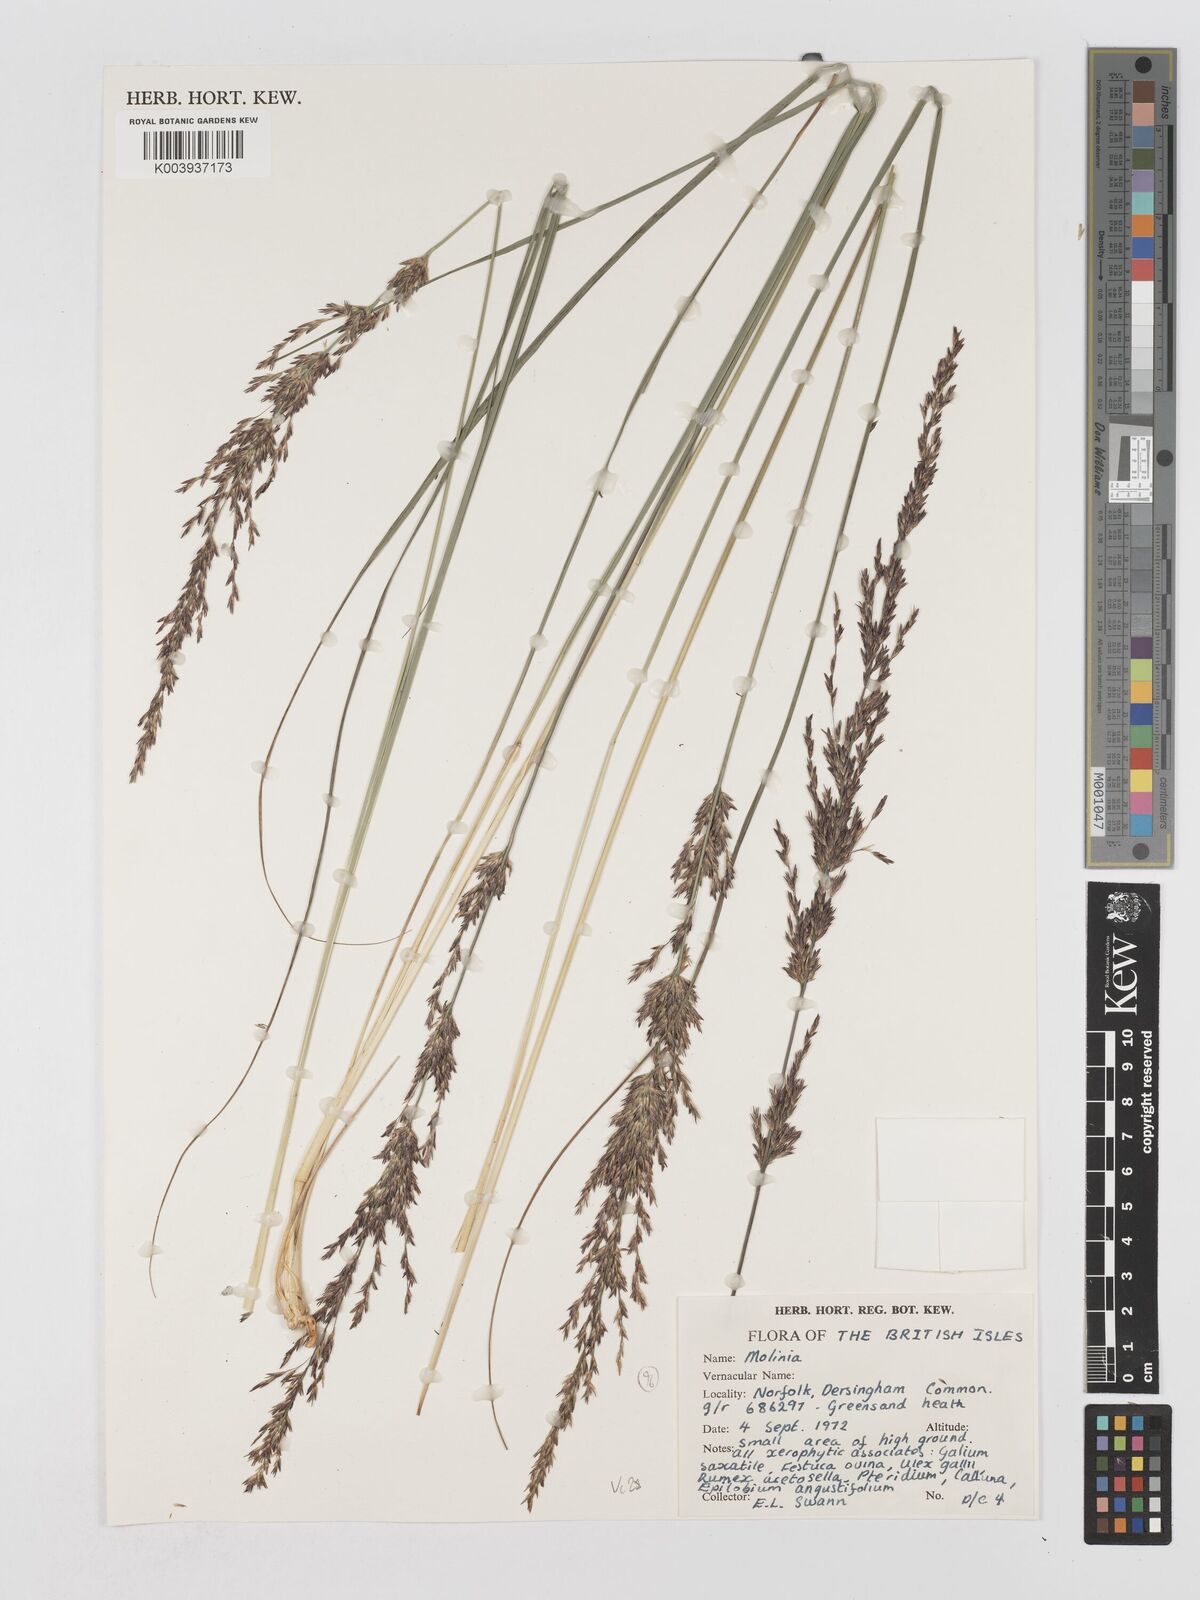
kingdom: Plantae
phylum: Tracheophyta
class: Liliopsida
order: Poales
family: Poaceae
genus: Molinia
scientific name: Molinia caerulea
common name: Purple moor-grass
